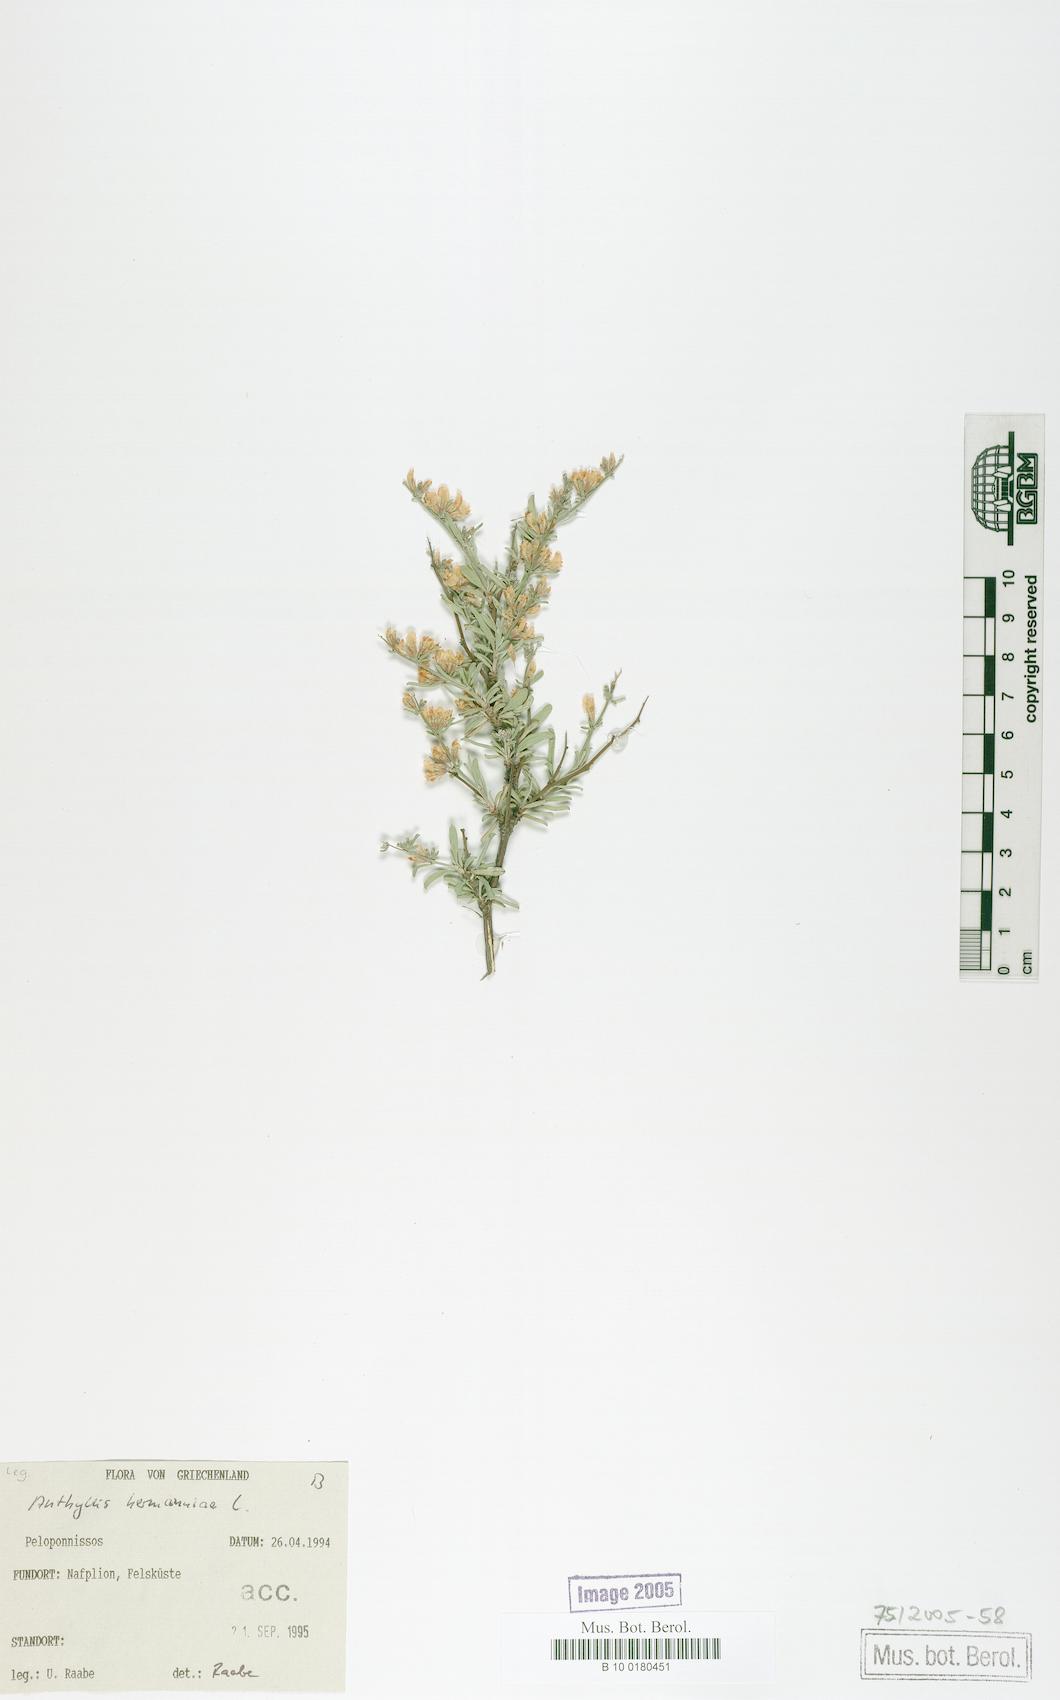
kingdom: Plantae
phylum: Tracheophyta
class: Magnoliopsida
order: Fabales
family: Fabaceae
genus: Anthyllis
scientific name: Anthyllis hermanniae
